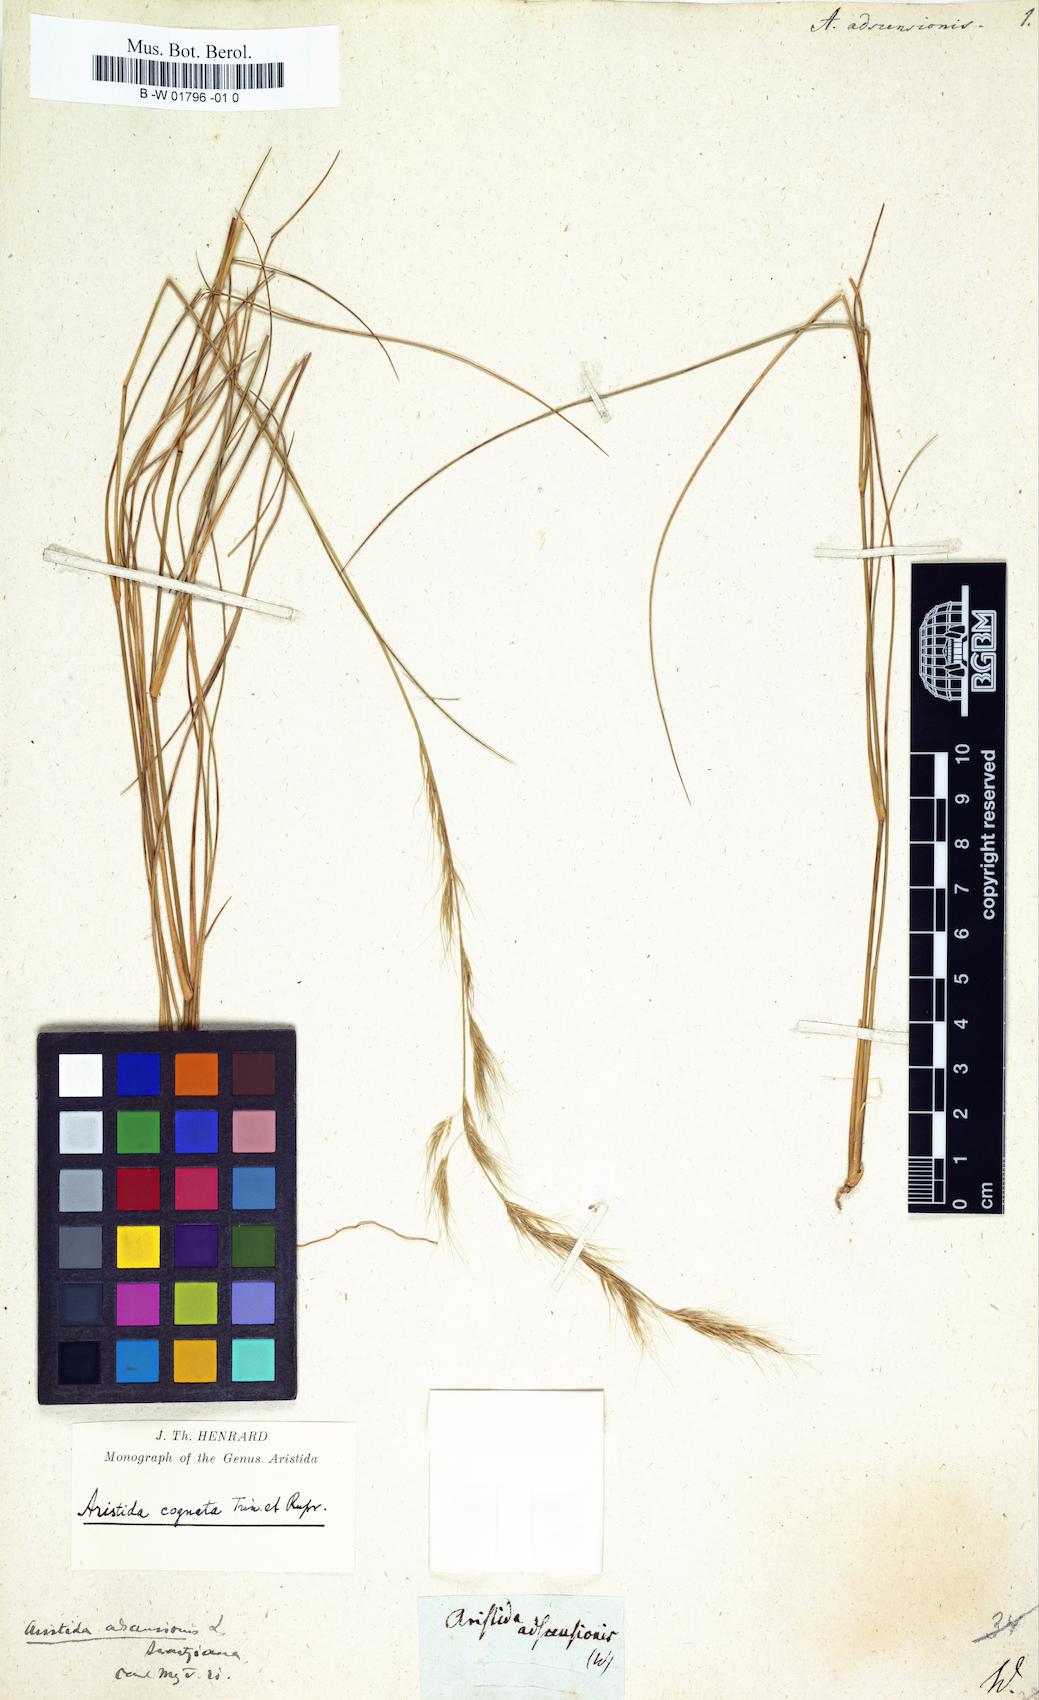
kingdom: Plantae
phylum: Tracheophyta
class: Liliopsida
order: Poales
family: Poaceae
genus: Aristida
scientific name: Aristida adscensionis
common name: Sixweeks threeawn
